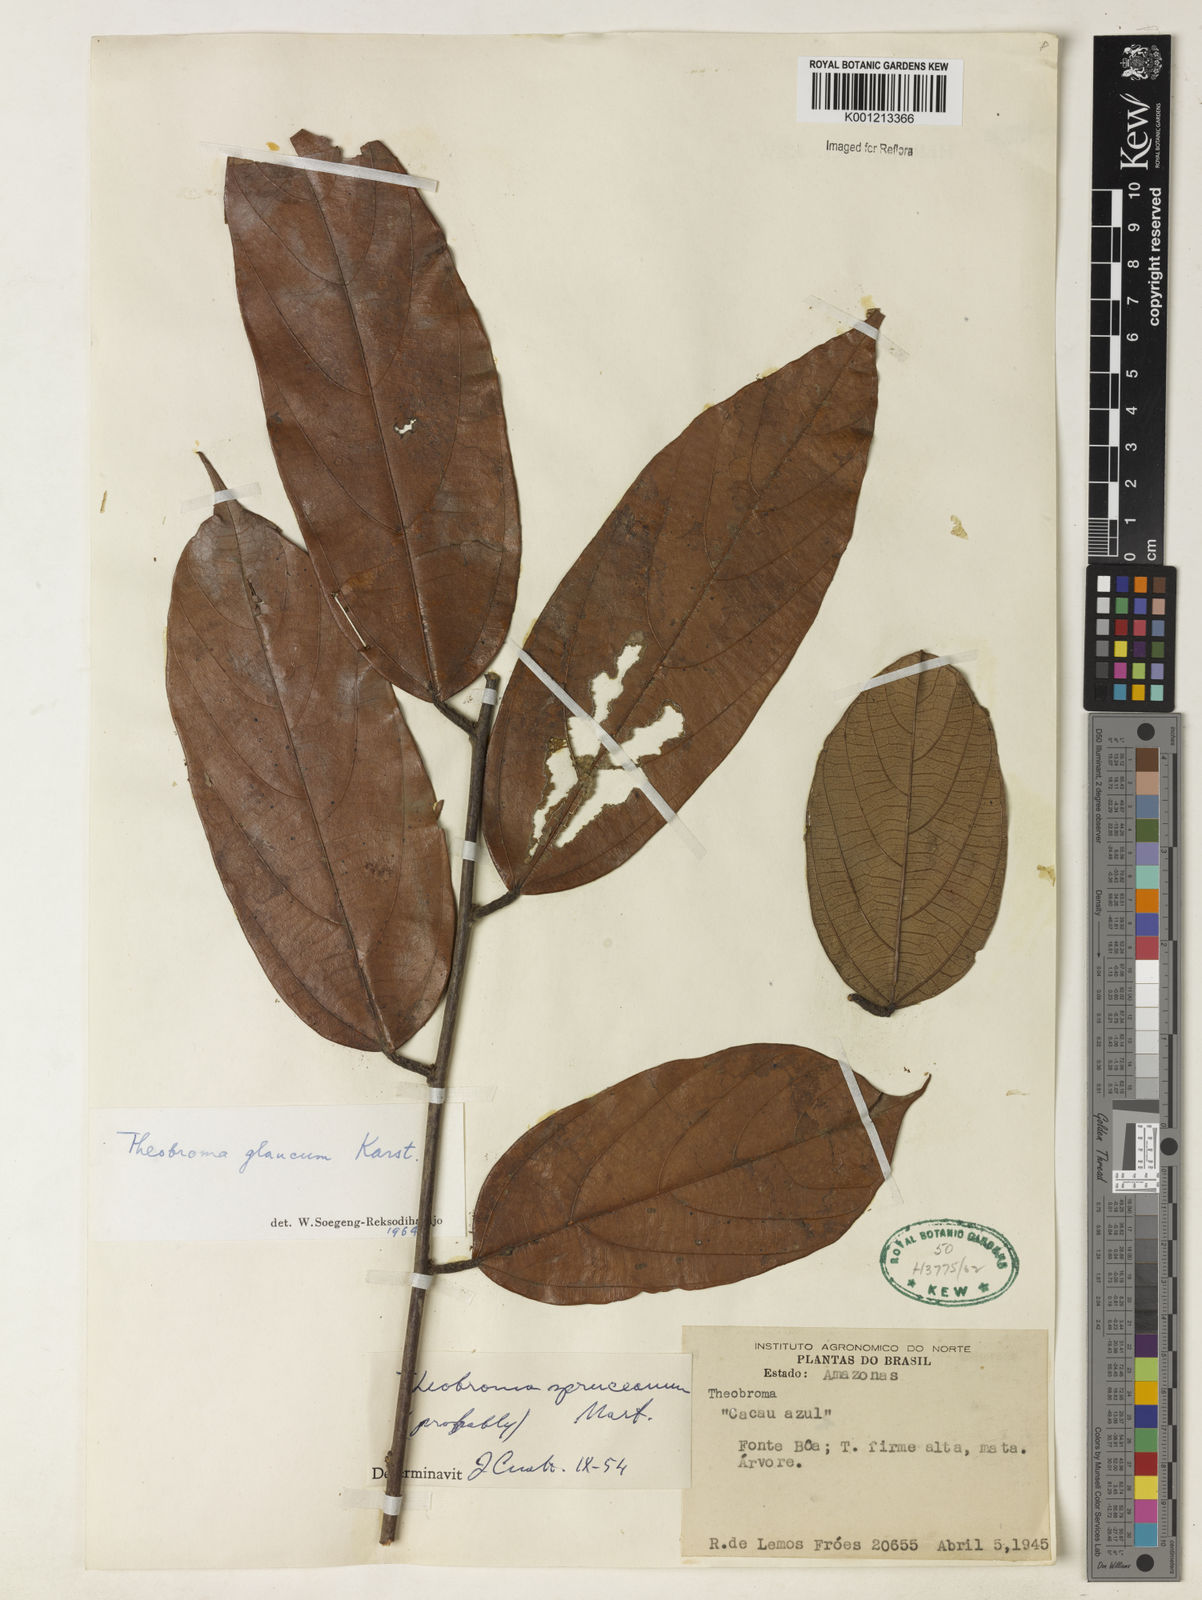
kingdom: Plantae
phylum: Tracheophyta
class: Magnoliopsida
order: Malvales
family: Malvaceae
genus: Theobroma
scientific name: Theobroma sylvestre
